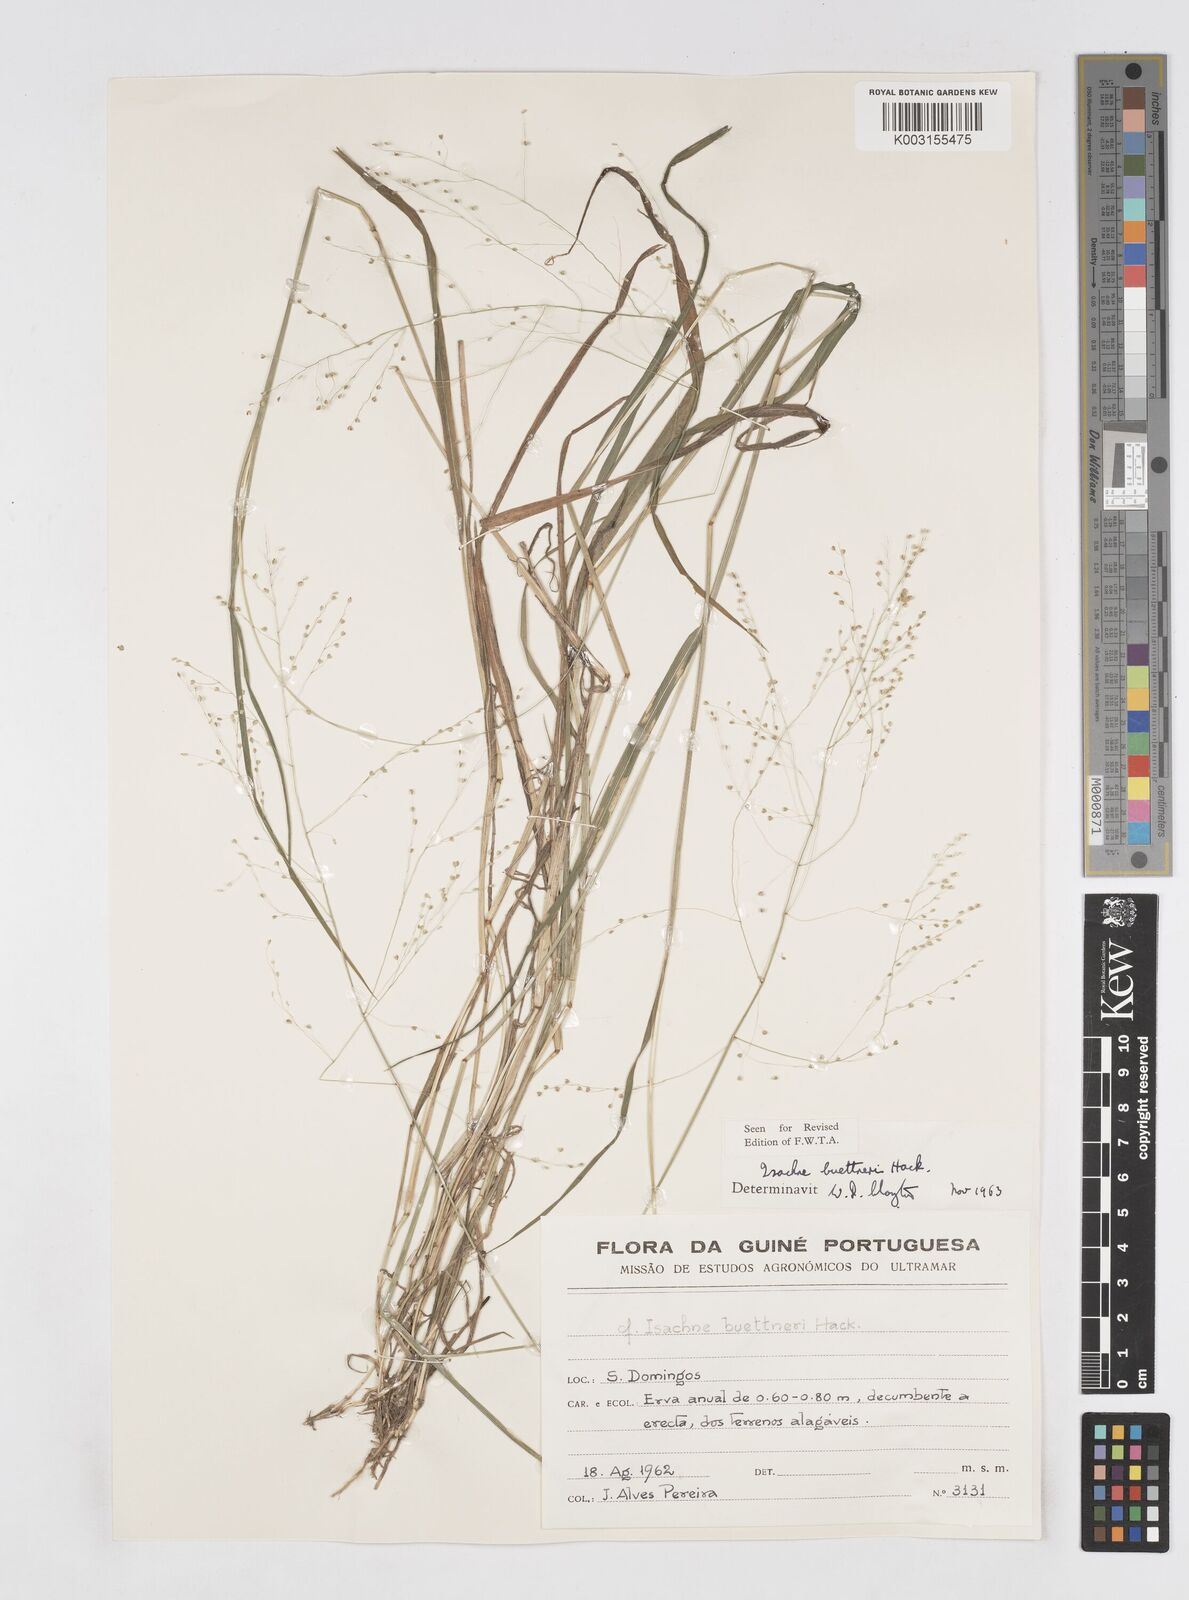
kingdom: Plantae
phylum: Tracheophyta
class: Liliopsida
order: Poales
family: Poaceae
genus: Isachne
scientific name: Isachne albens
